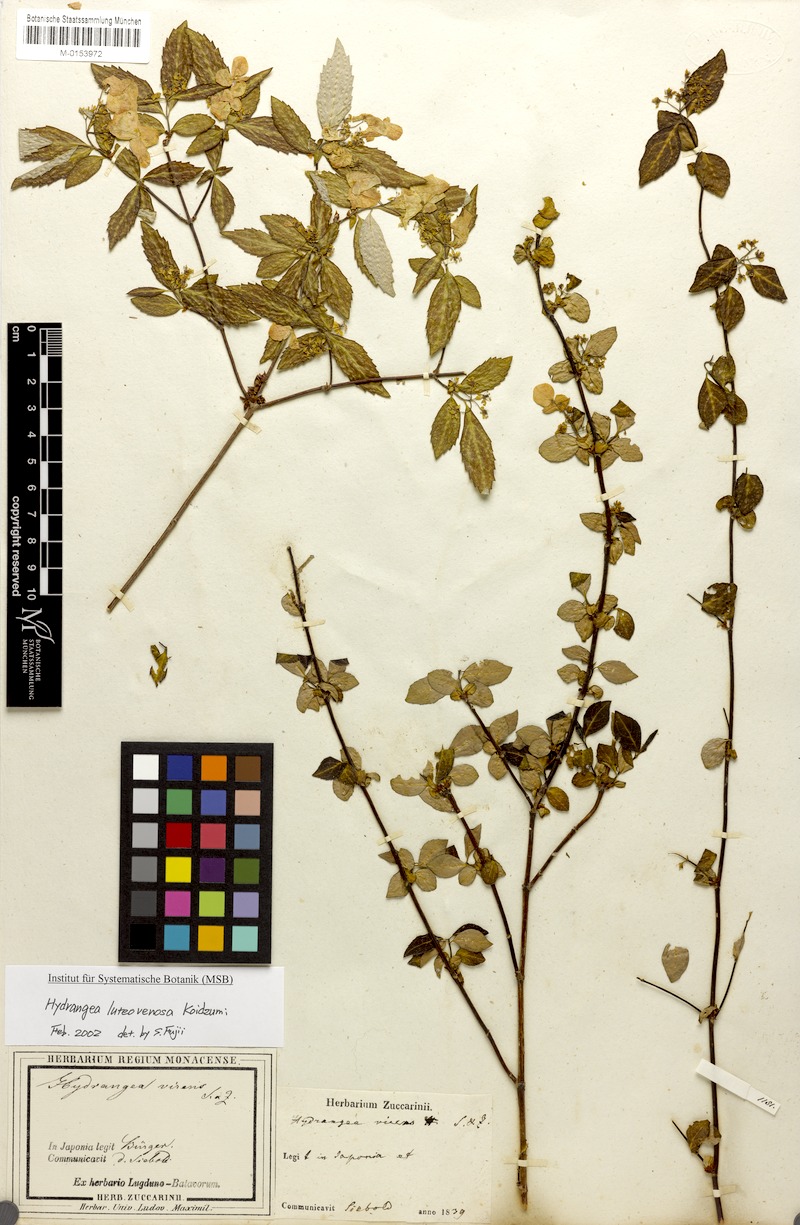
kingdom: Plantae
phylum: Tracheophyta
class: Magnoliopsida
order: Cornales
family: Hydrangeaceae
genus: Hydrangea
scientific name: Hydrangea luteovenosa
